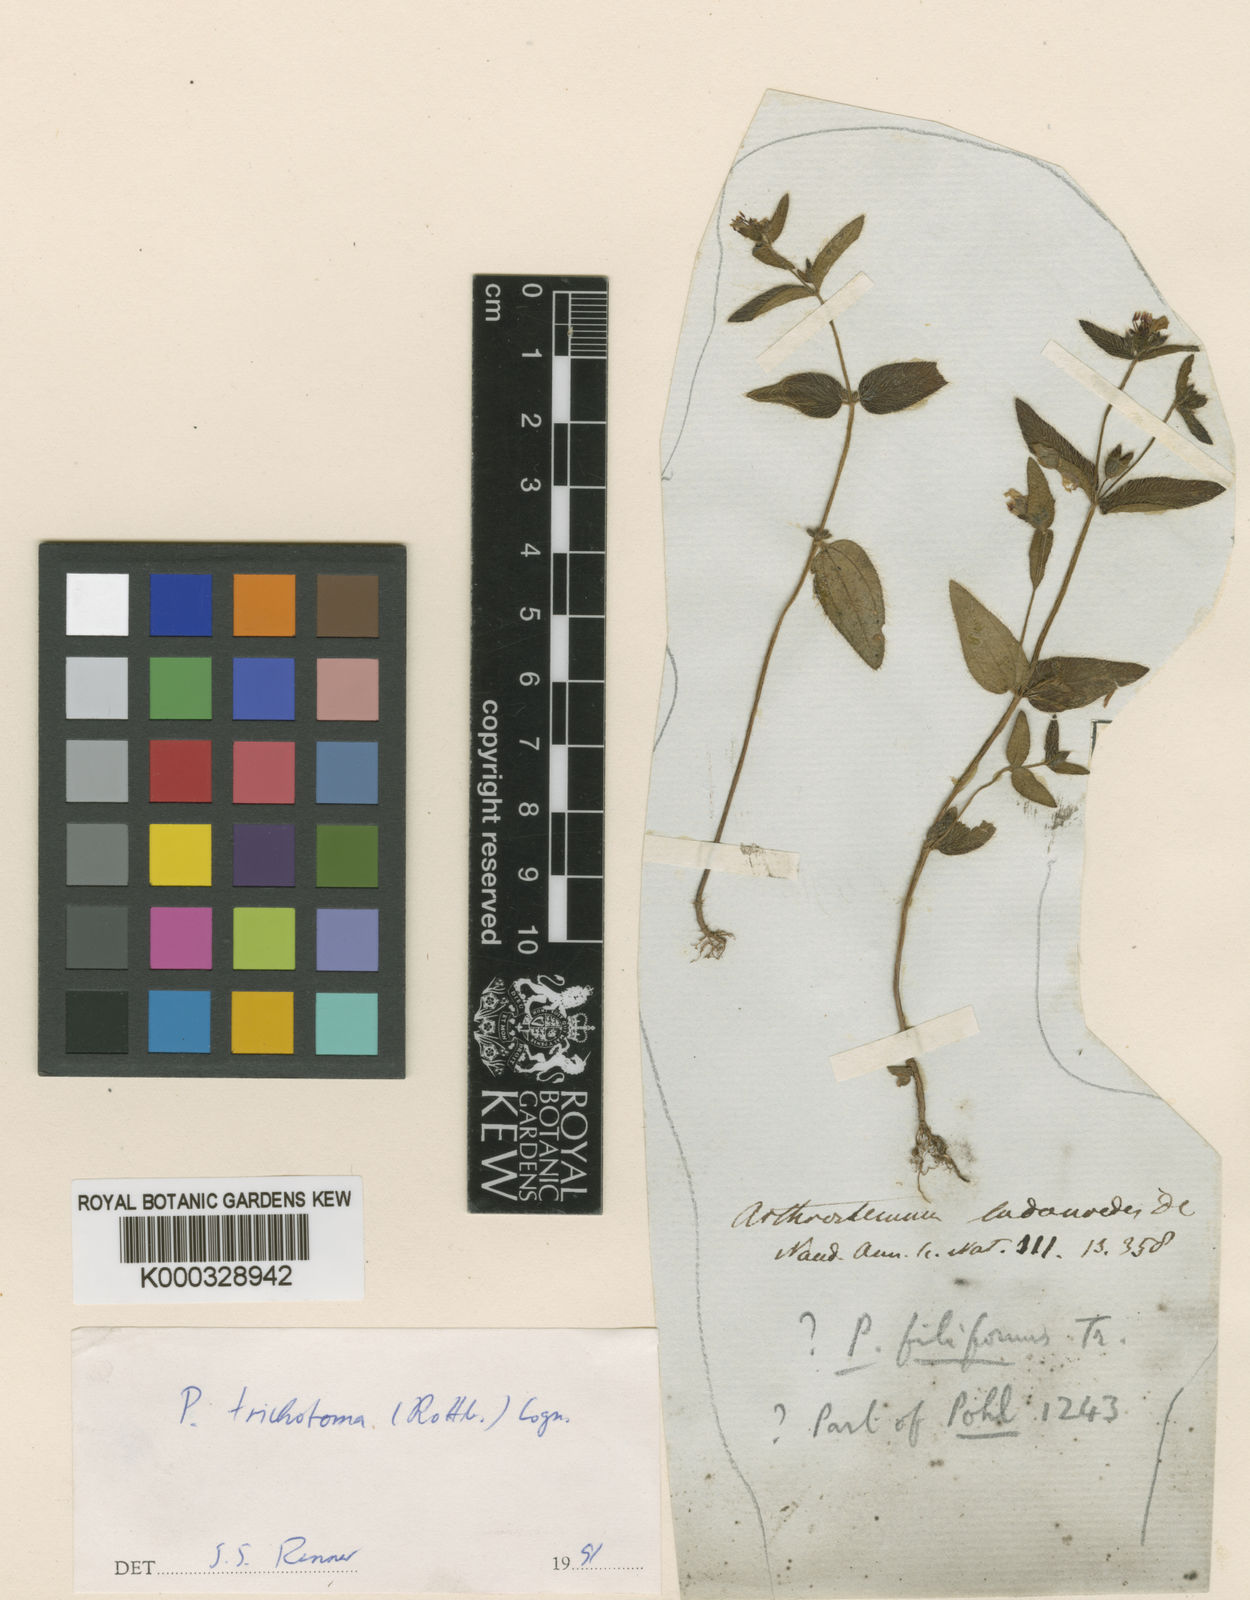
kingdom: Plantae
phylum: Tracheophyta
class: Magnoliopsida
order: Myrtales
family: Melastomataceae
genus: Pterolepis
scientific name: Pterolepis trichotoma
